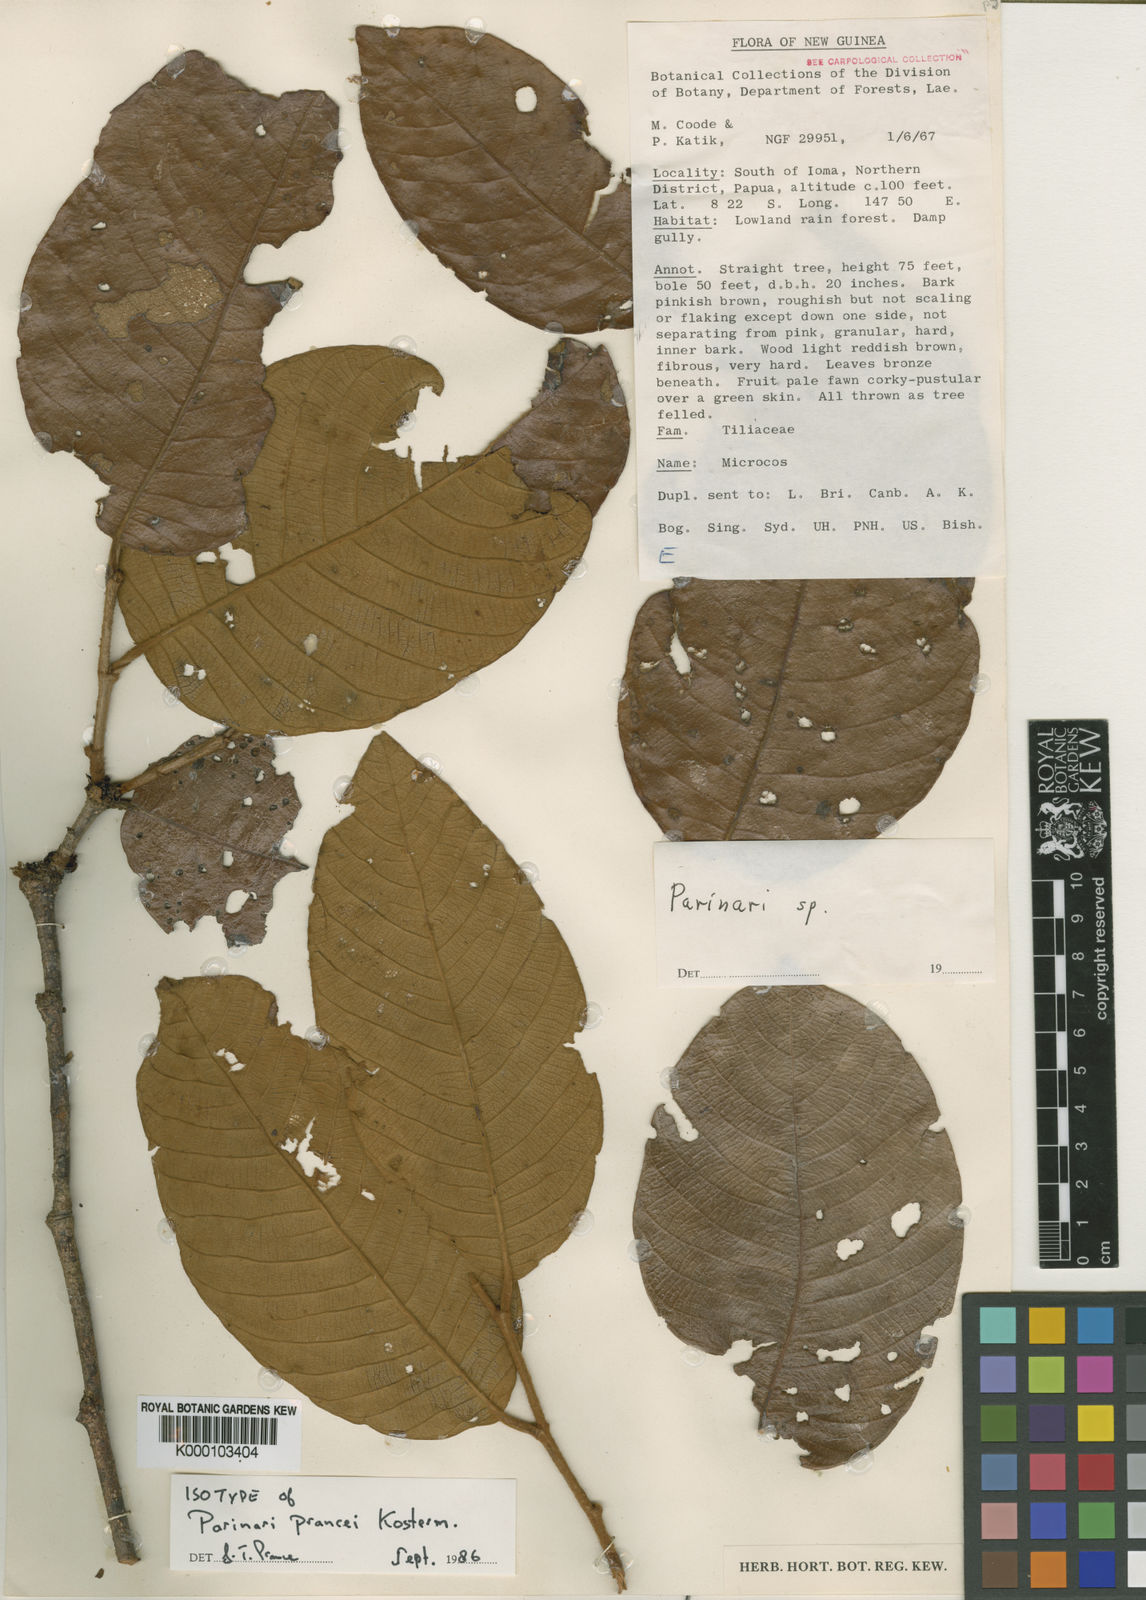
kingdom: Plantae
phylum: Tracheophyta
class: Magnoliopsida
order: Malpighiales
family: Chrysobalanaceae
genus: Parinari
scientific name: Parinari prancei
